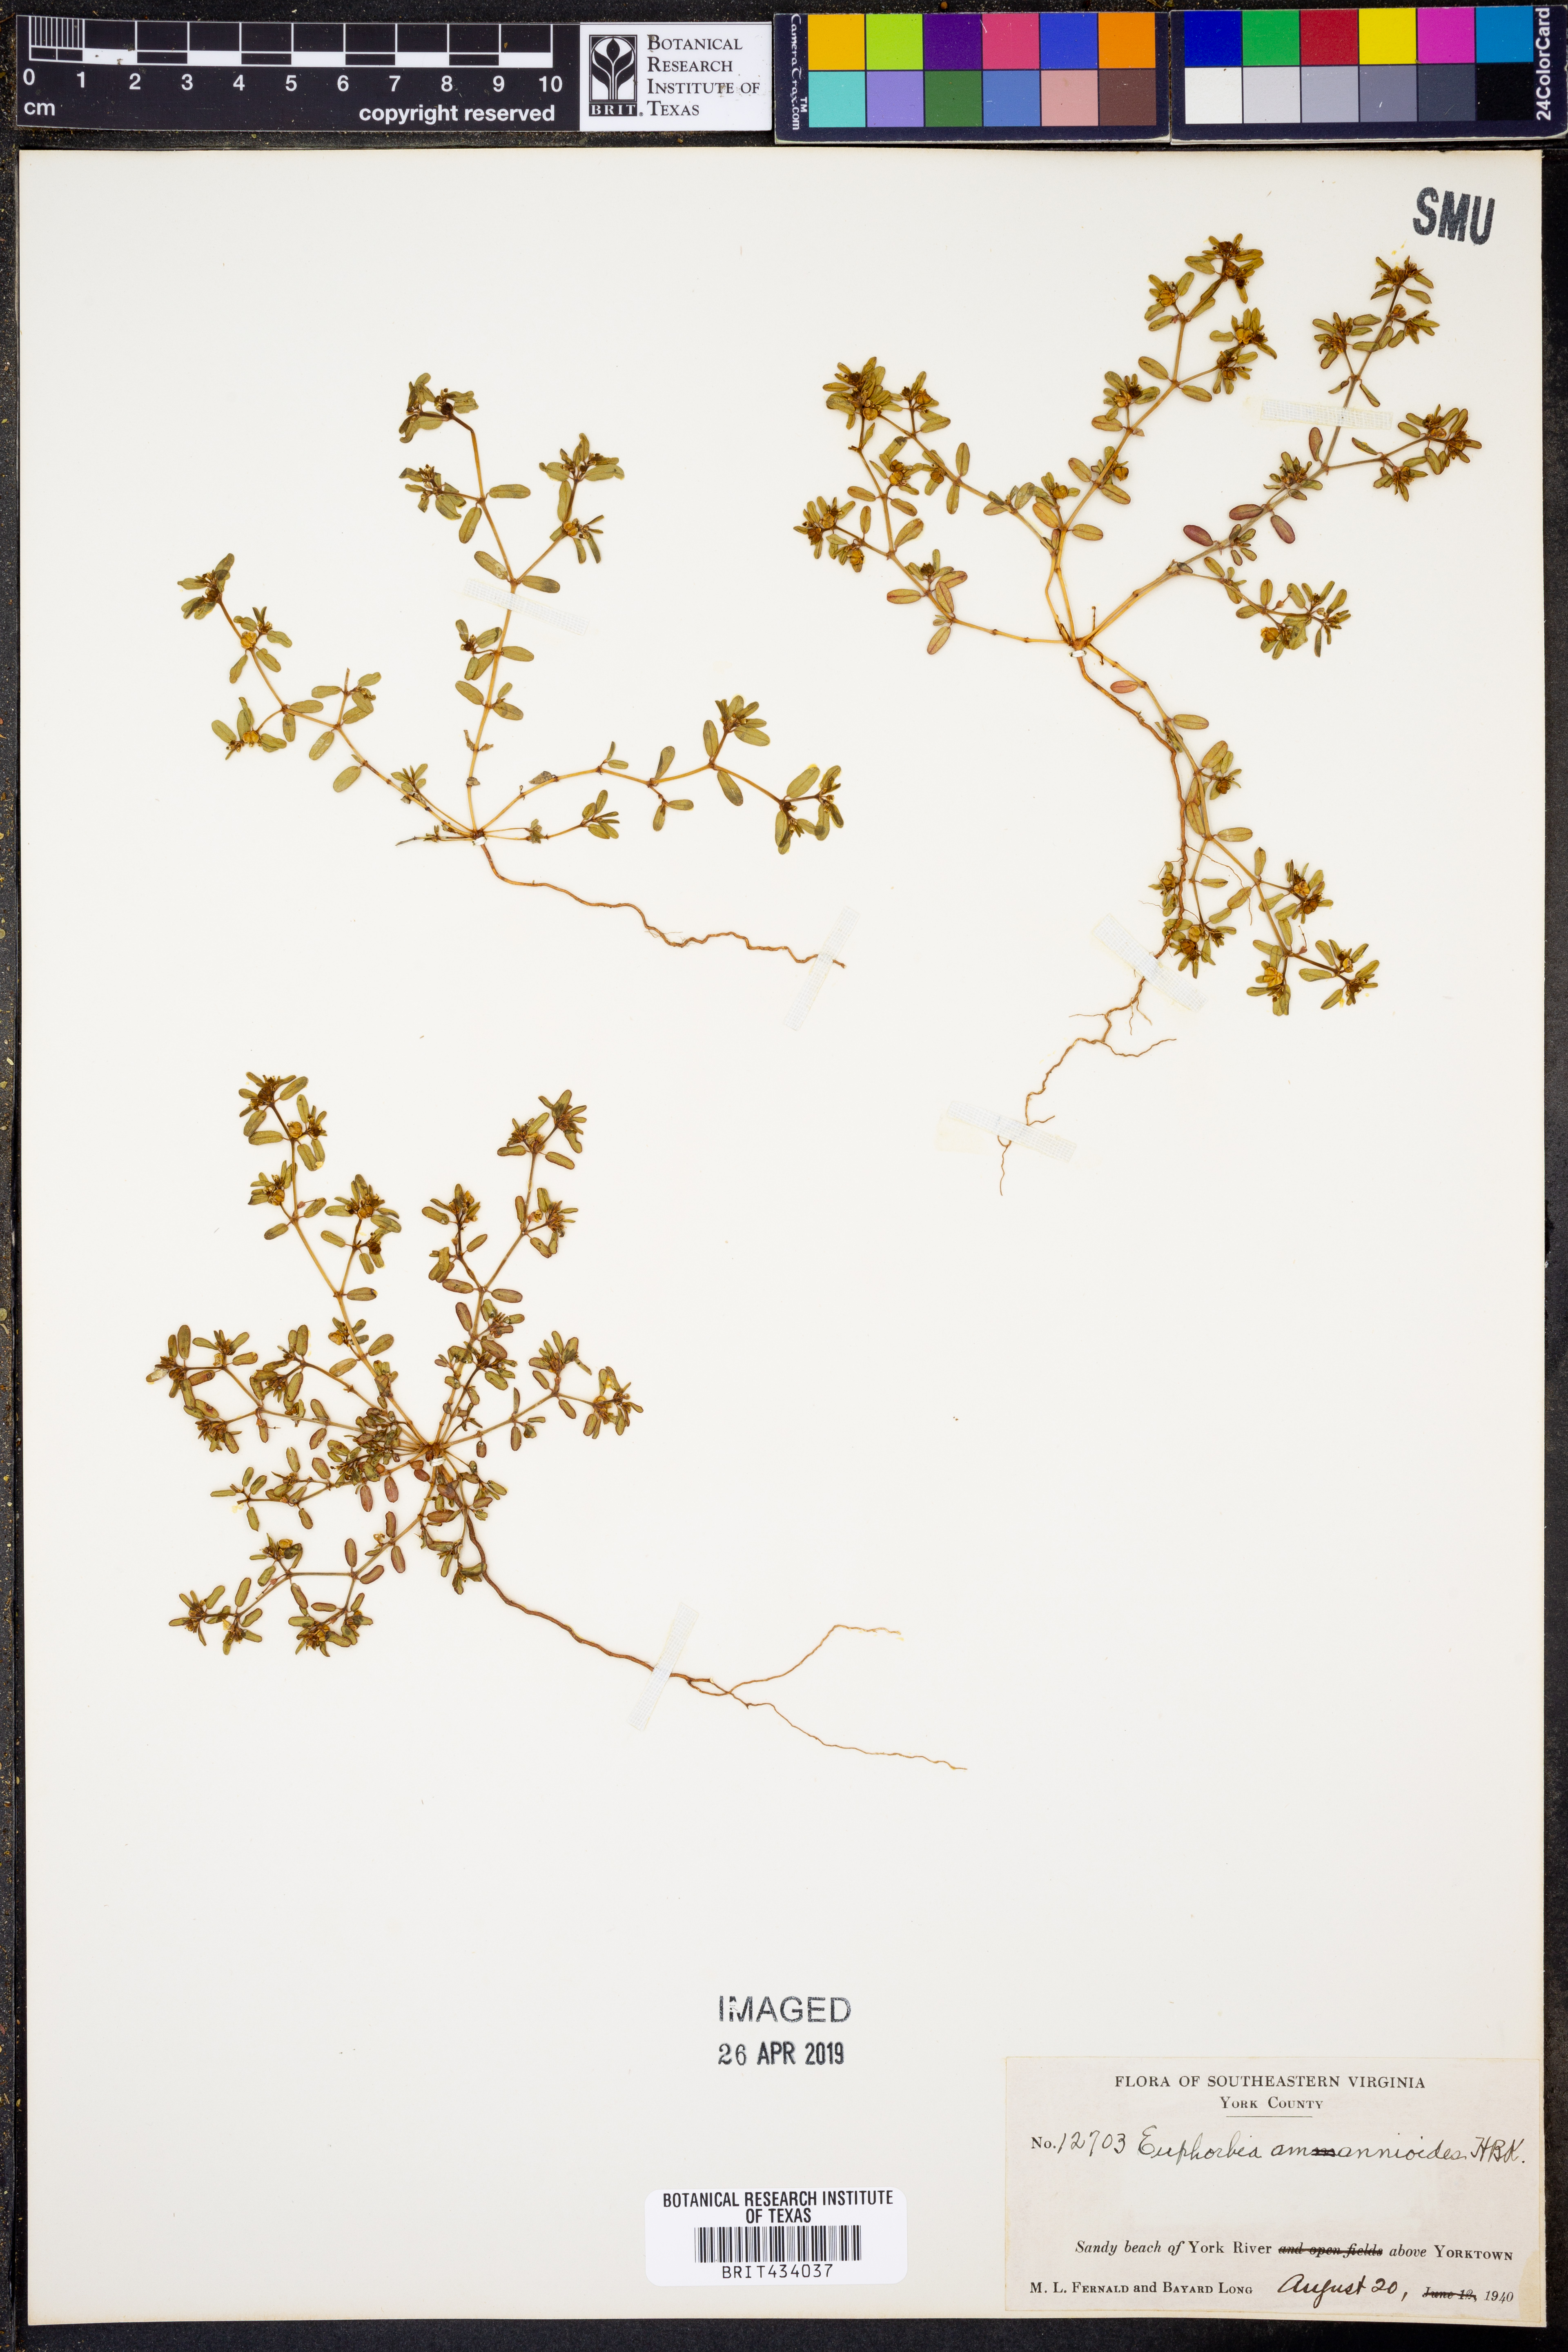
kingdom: Plantae
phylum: Tracheophyta
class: Magnoliopsida
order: Malpighiales
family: Euphorbiaceae
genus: Euphorbia
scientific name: Euphorbia bombensis
